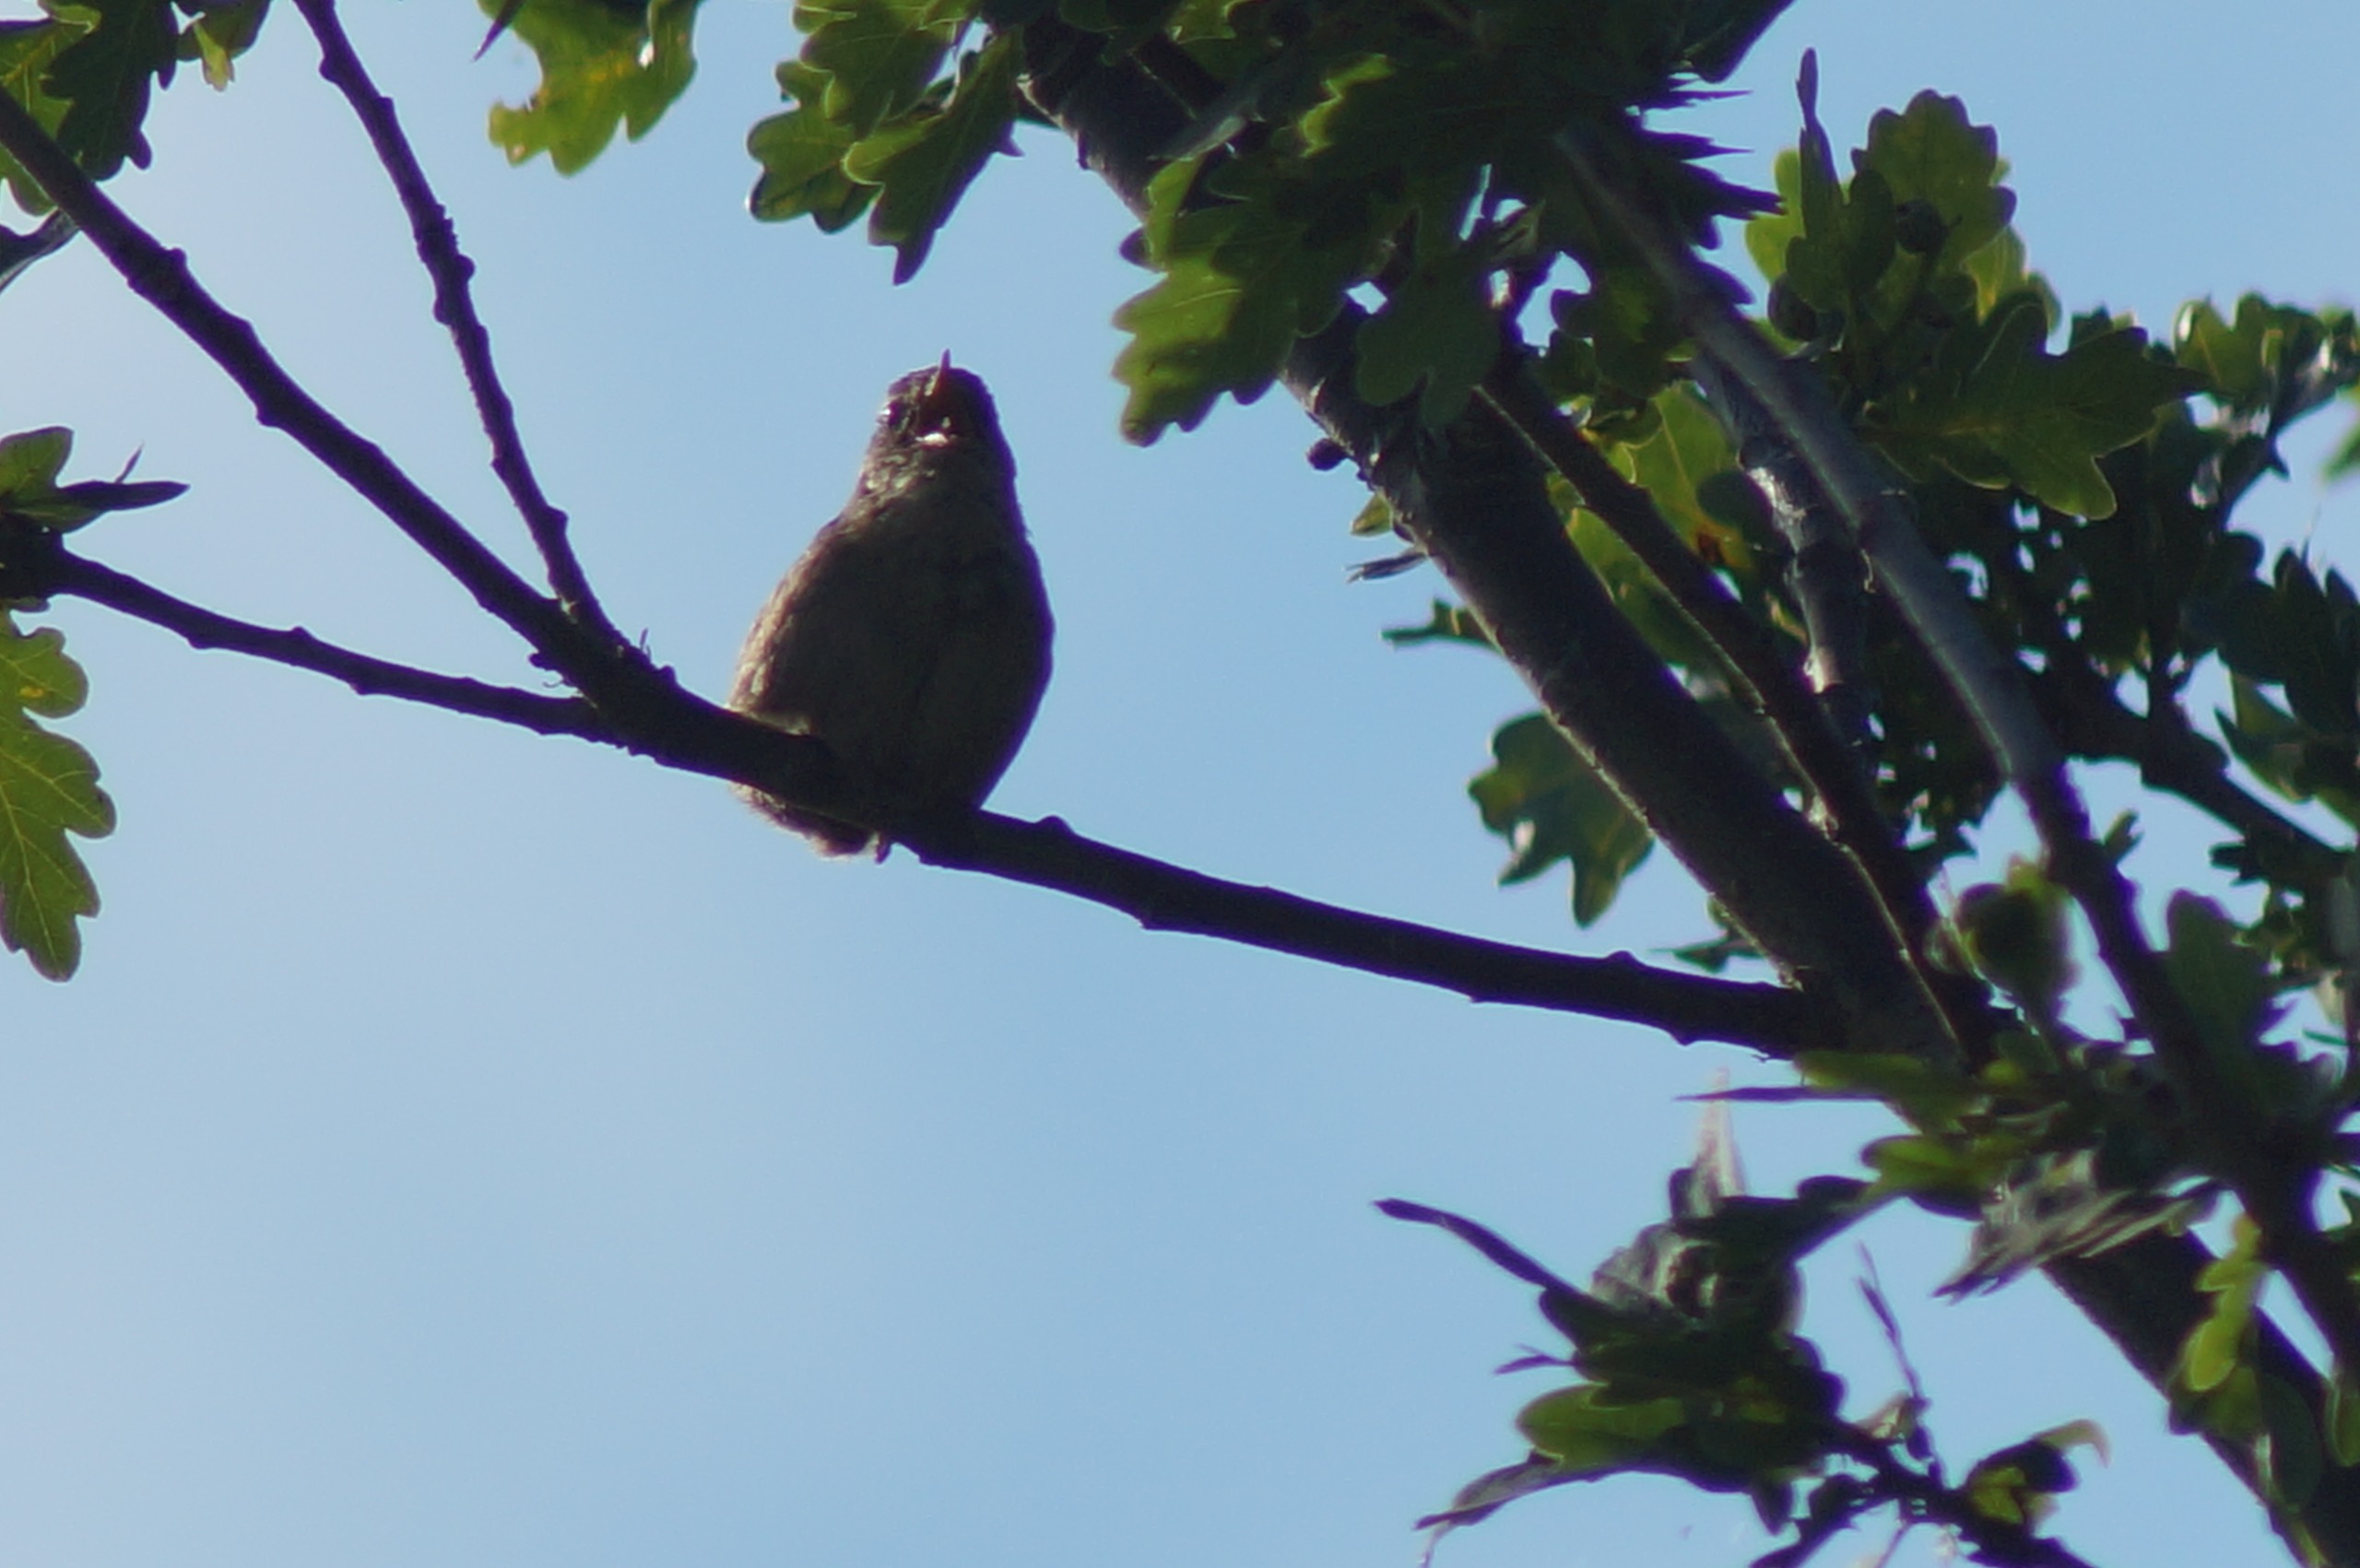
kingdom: Animalia
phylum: Chordata
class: Aves
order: Passeriformes
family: Troglodytidae
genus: Troglodytes
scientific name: Troglodytes troglodytes
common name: Gærdesmutte
